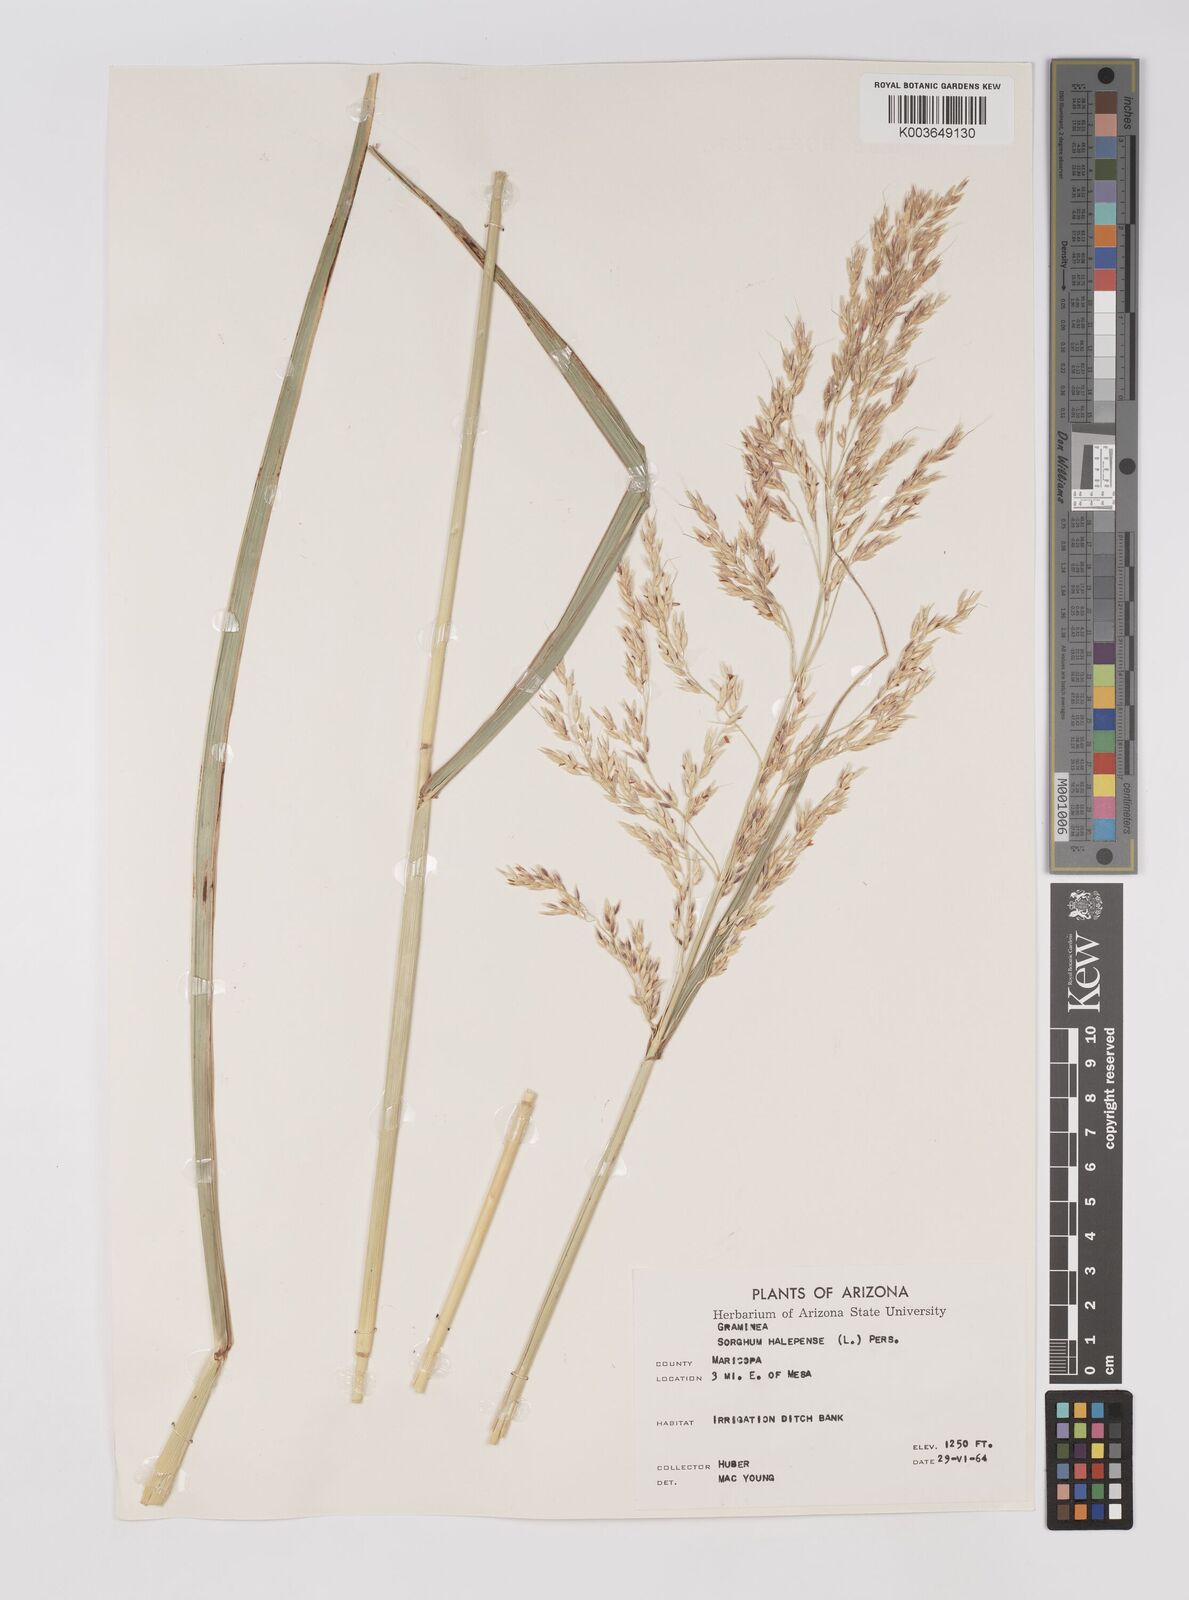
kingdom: Plantae
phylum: Tracheophyta
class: Liliopsida
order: Poales
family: Poaceae
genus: Sorghum
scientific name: Sorghum halepense
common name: Johnson-grass
